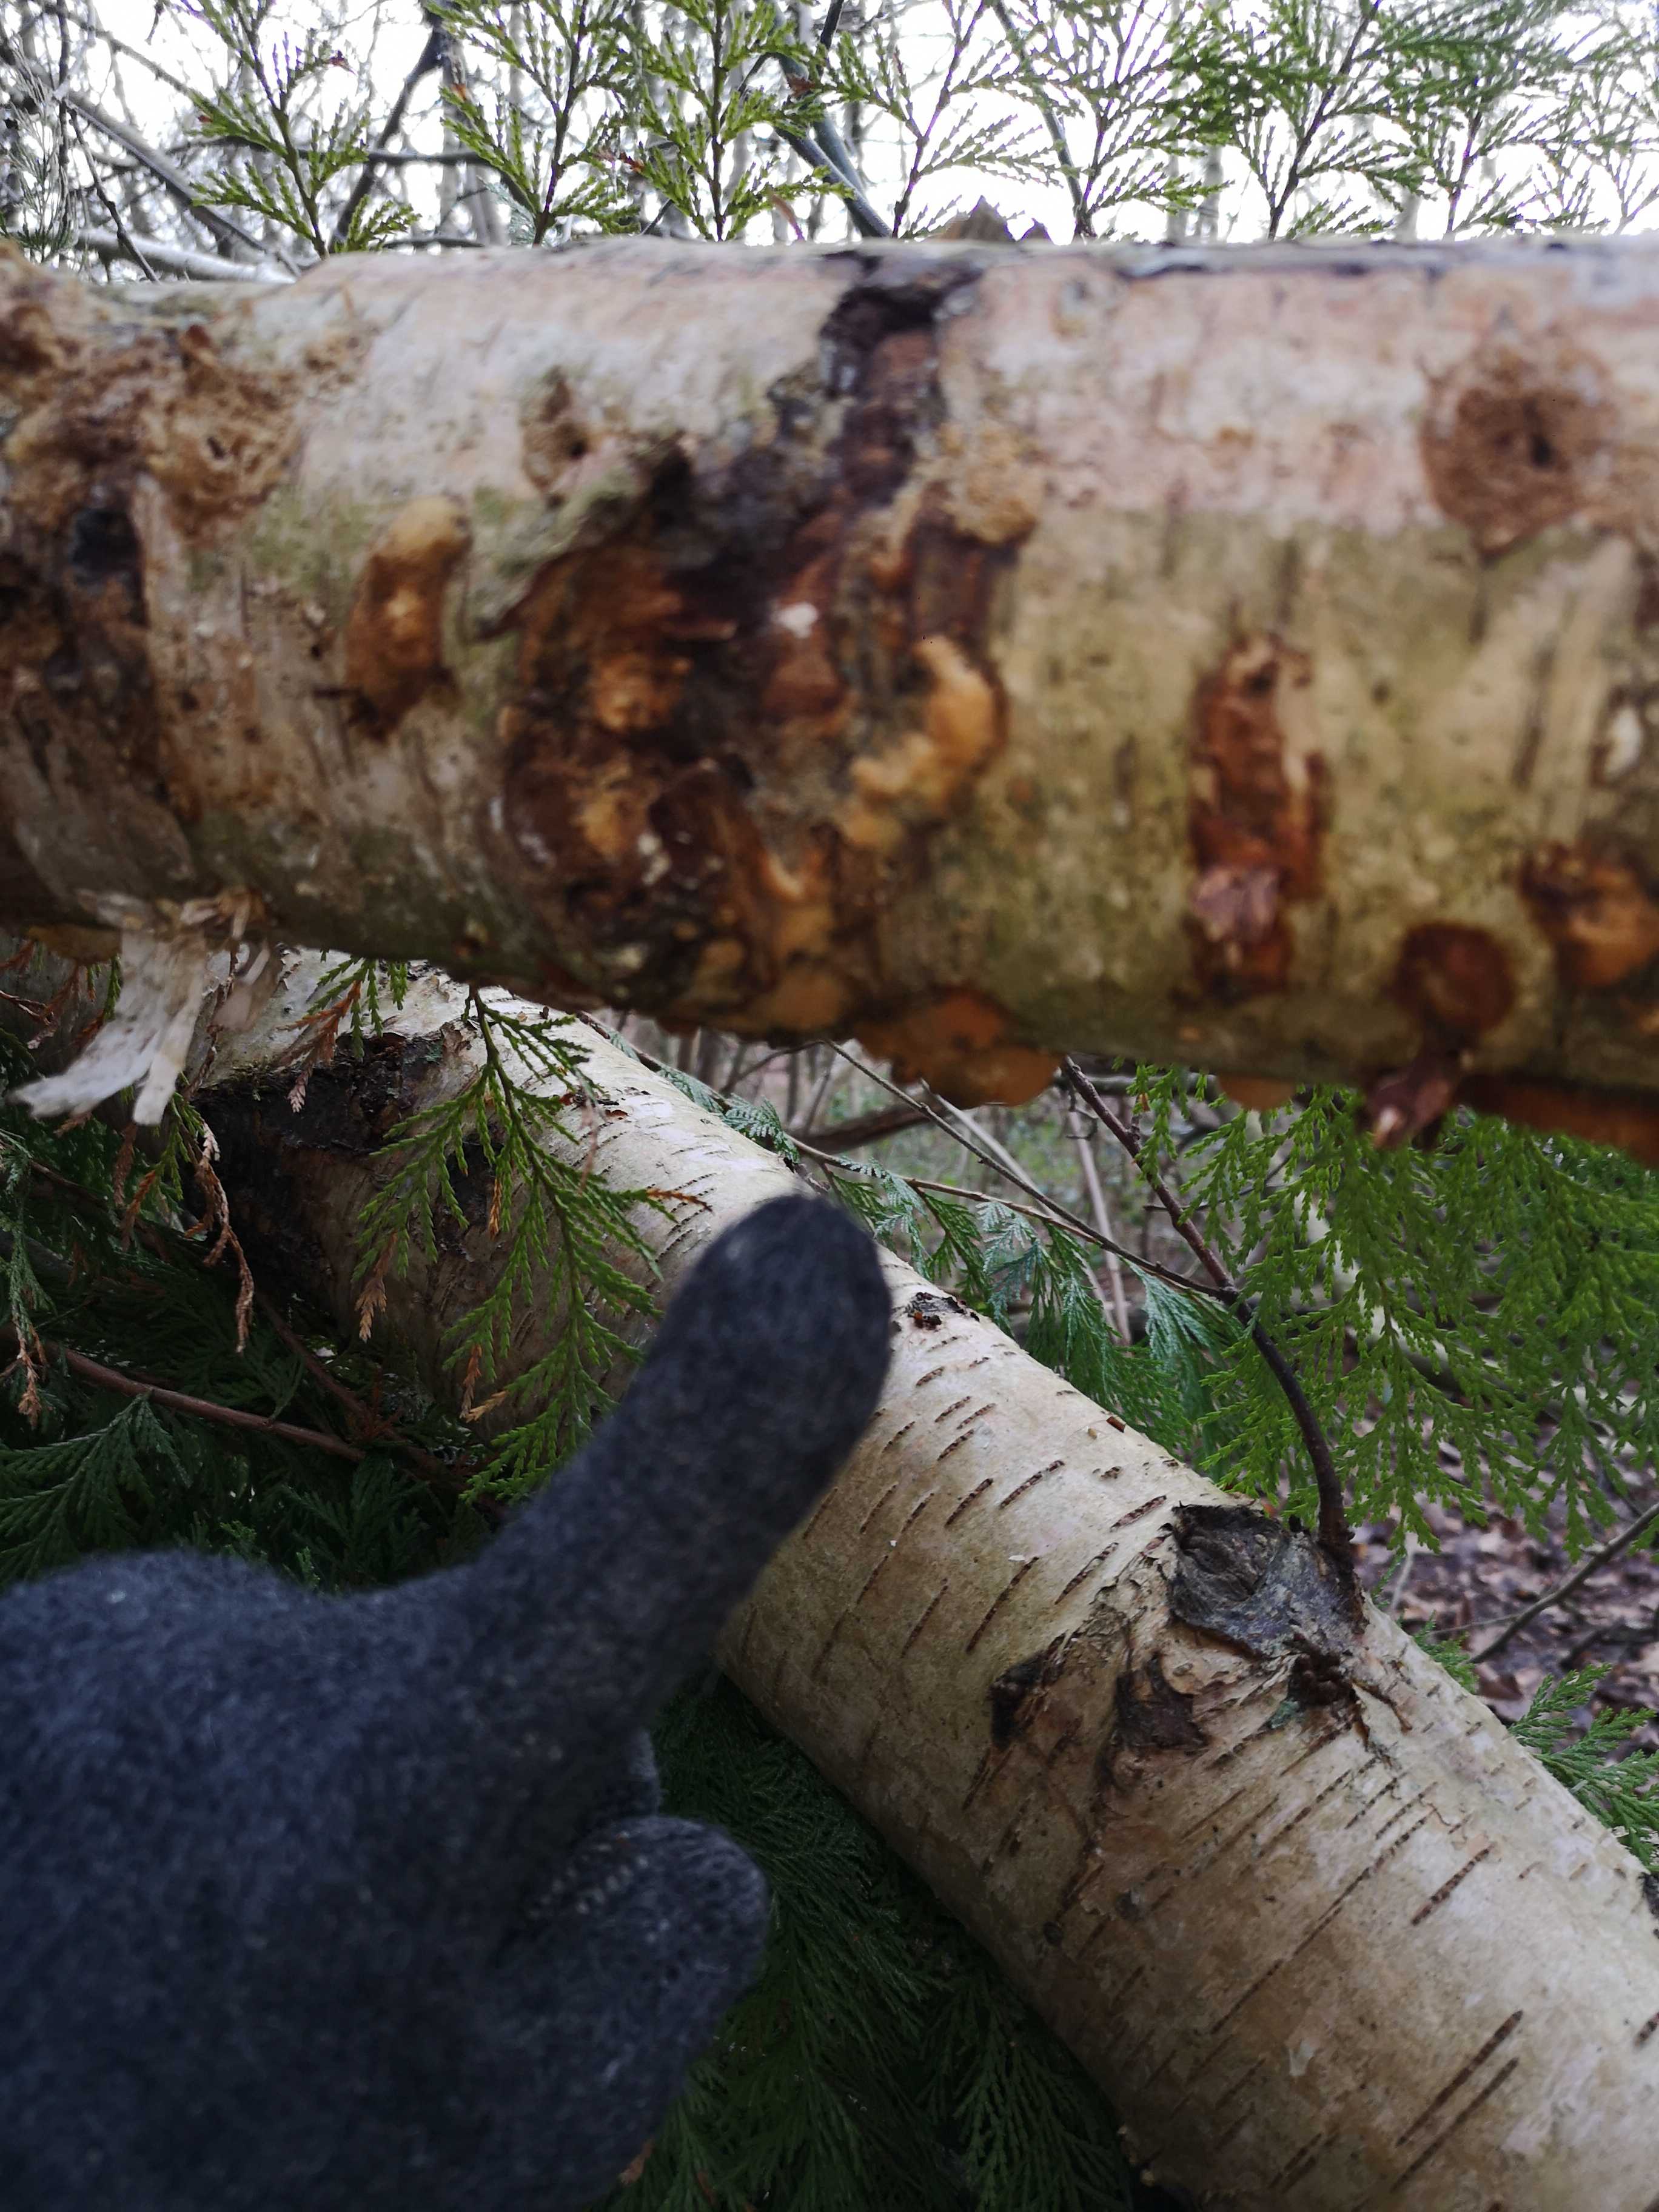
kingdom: Fungi
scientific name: Fungi
